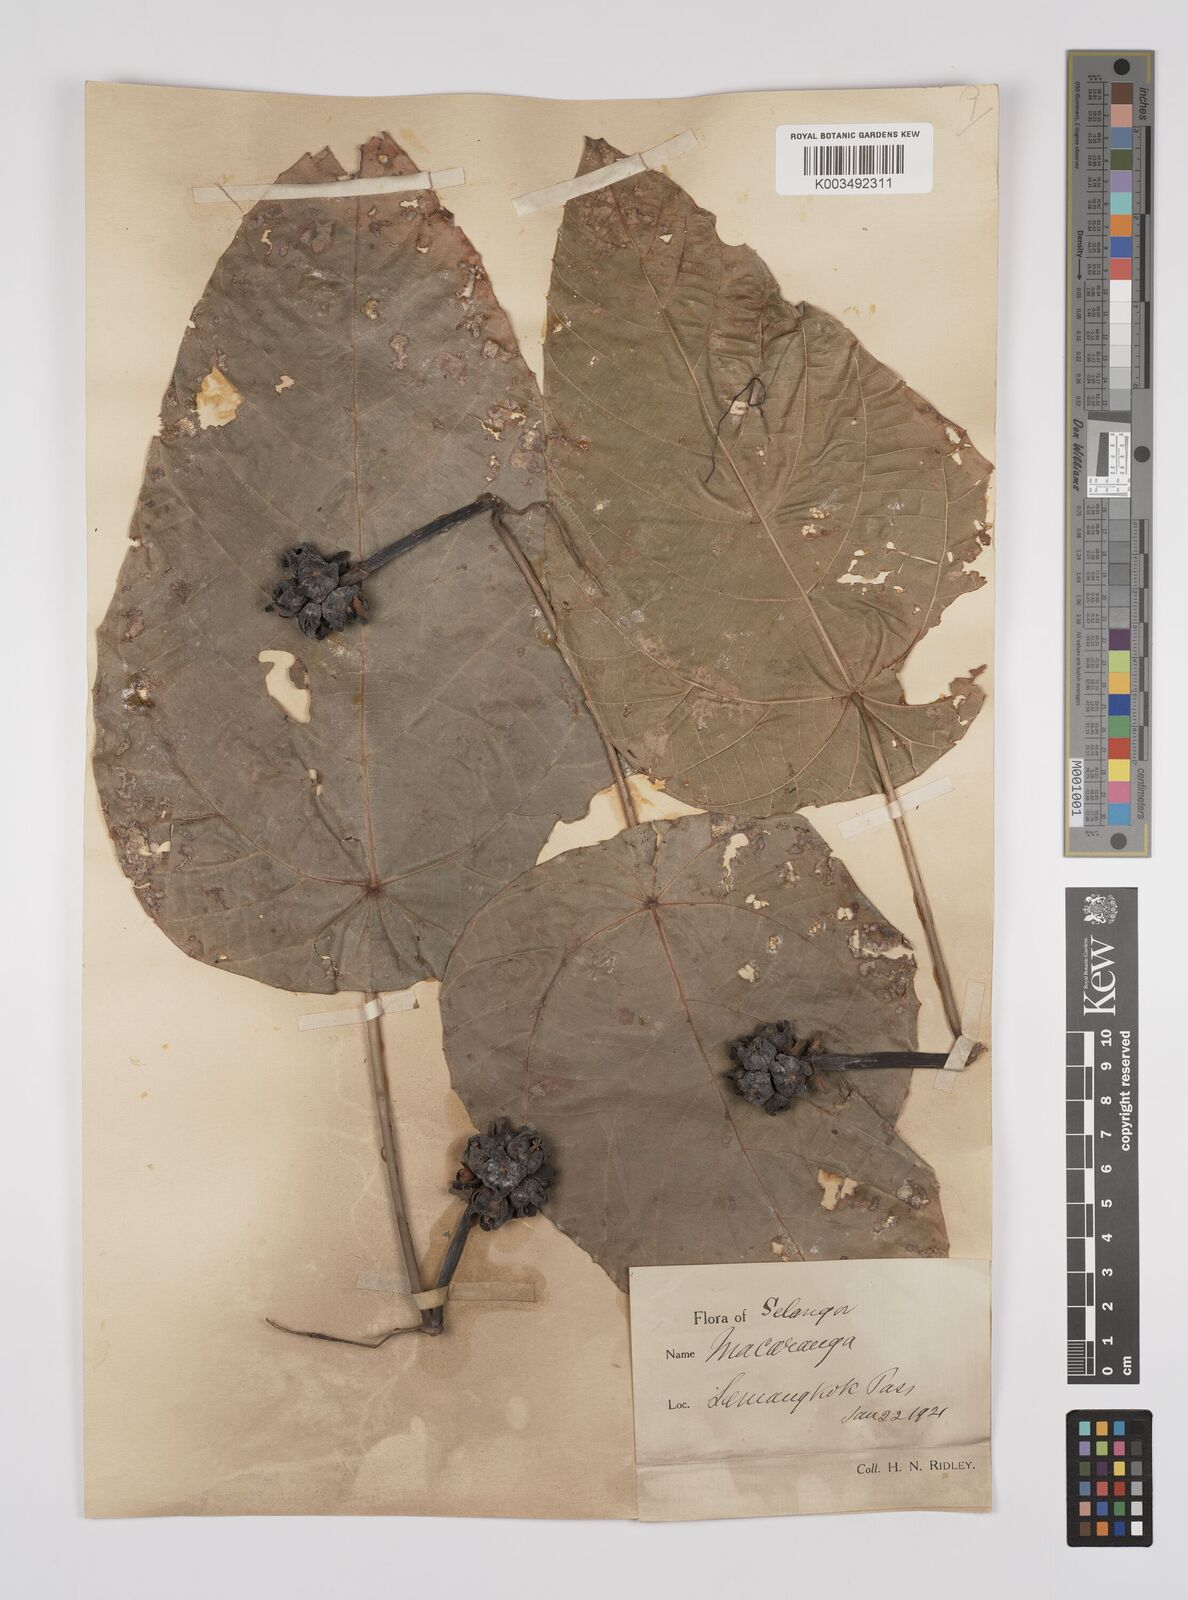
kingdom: Plantae
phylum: Tracheophyta
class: Magnoliopsida
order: Malpighiales
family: Euphorbiaceae
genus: Macaranga
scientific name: Macaranga hullettii
